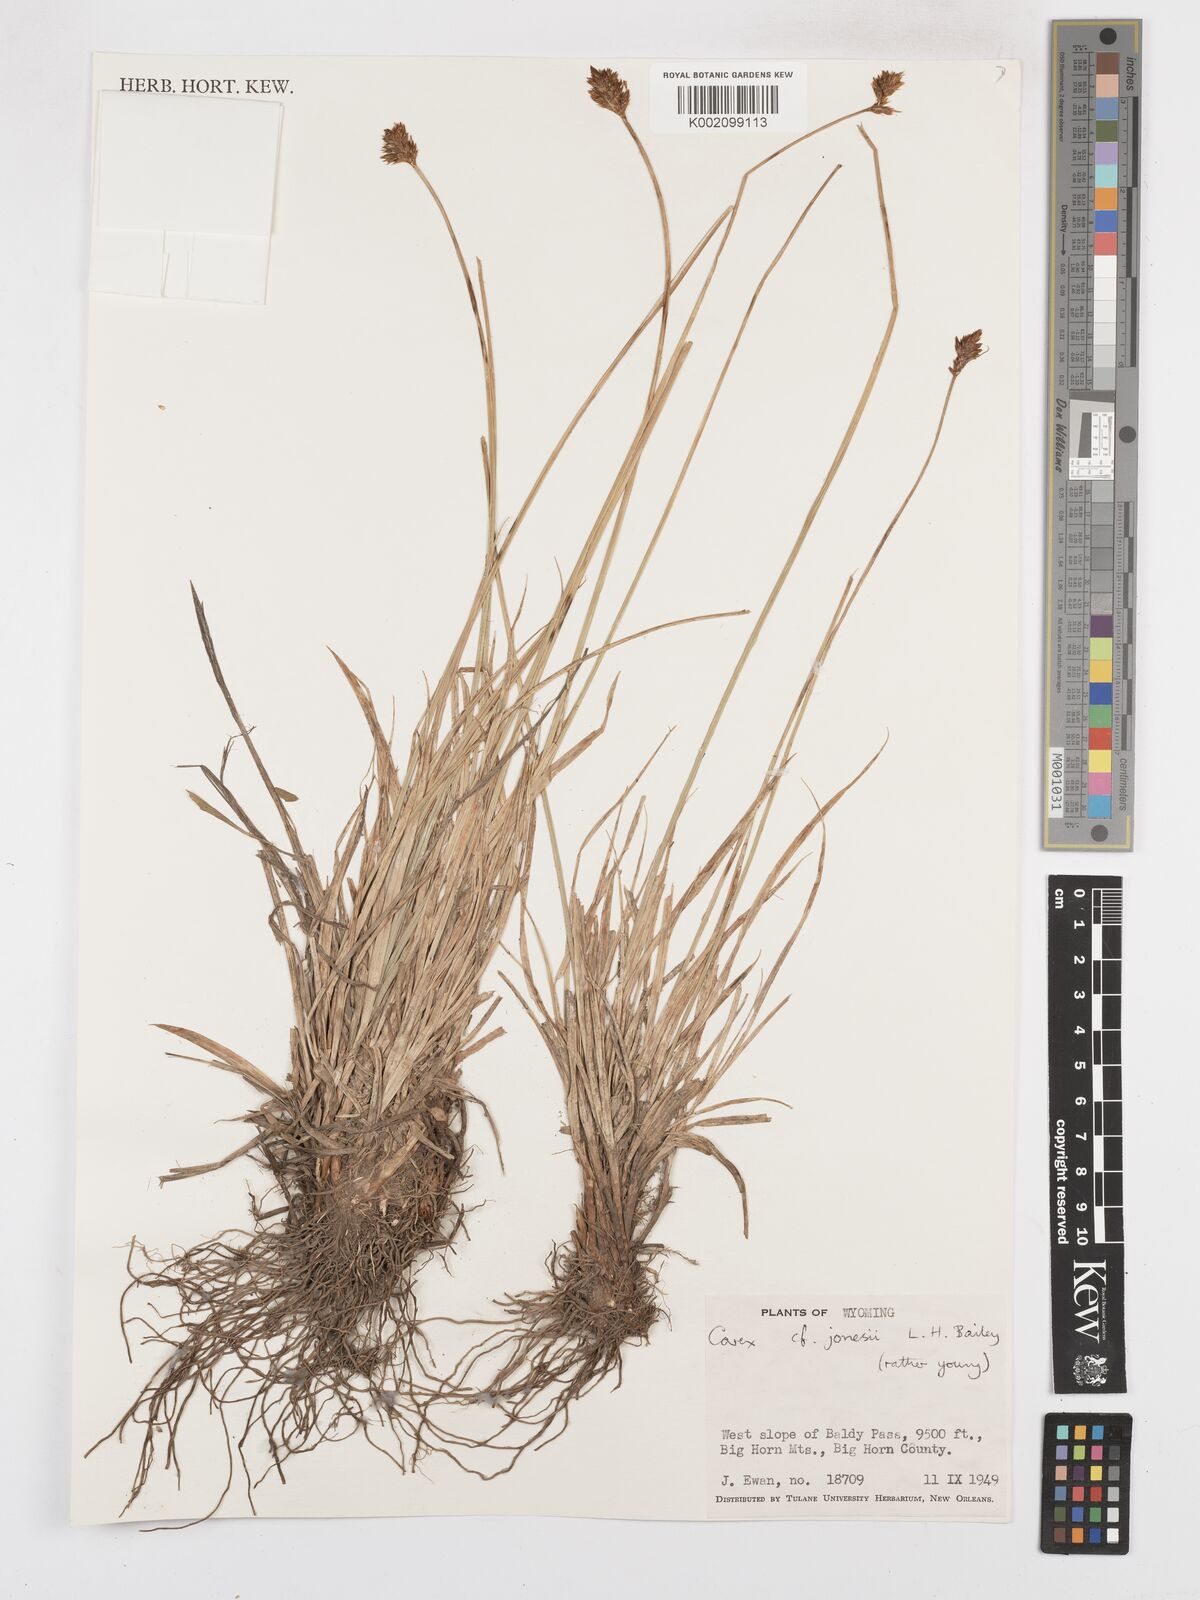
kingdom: Plantae
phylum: Tracheophyta
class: Liliopsida
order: Poales
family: Cyperaceae
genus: Carex
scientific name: Carex jonesii
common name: Jones' sedge
